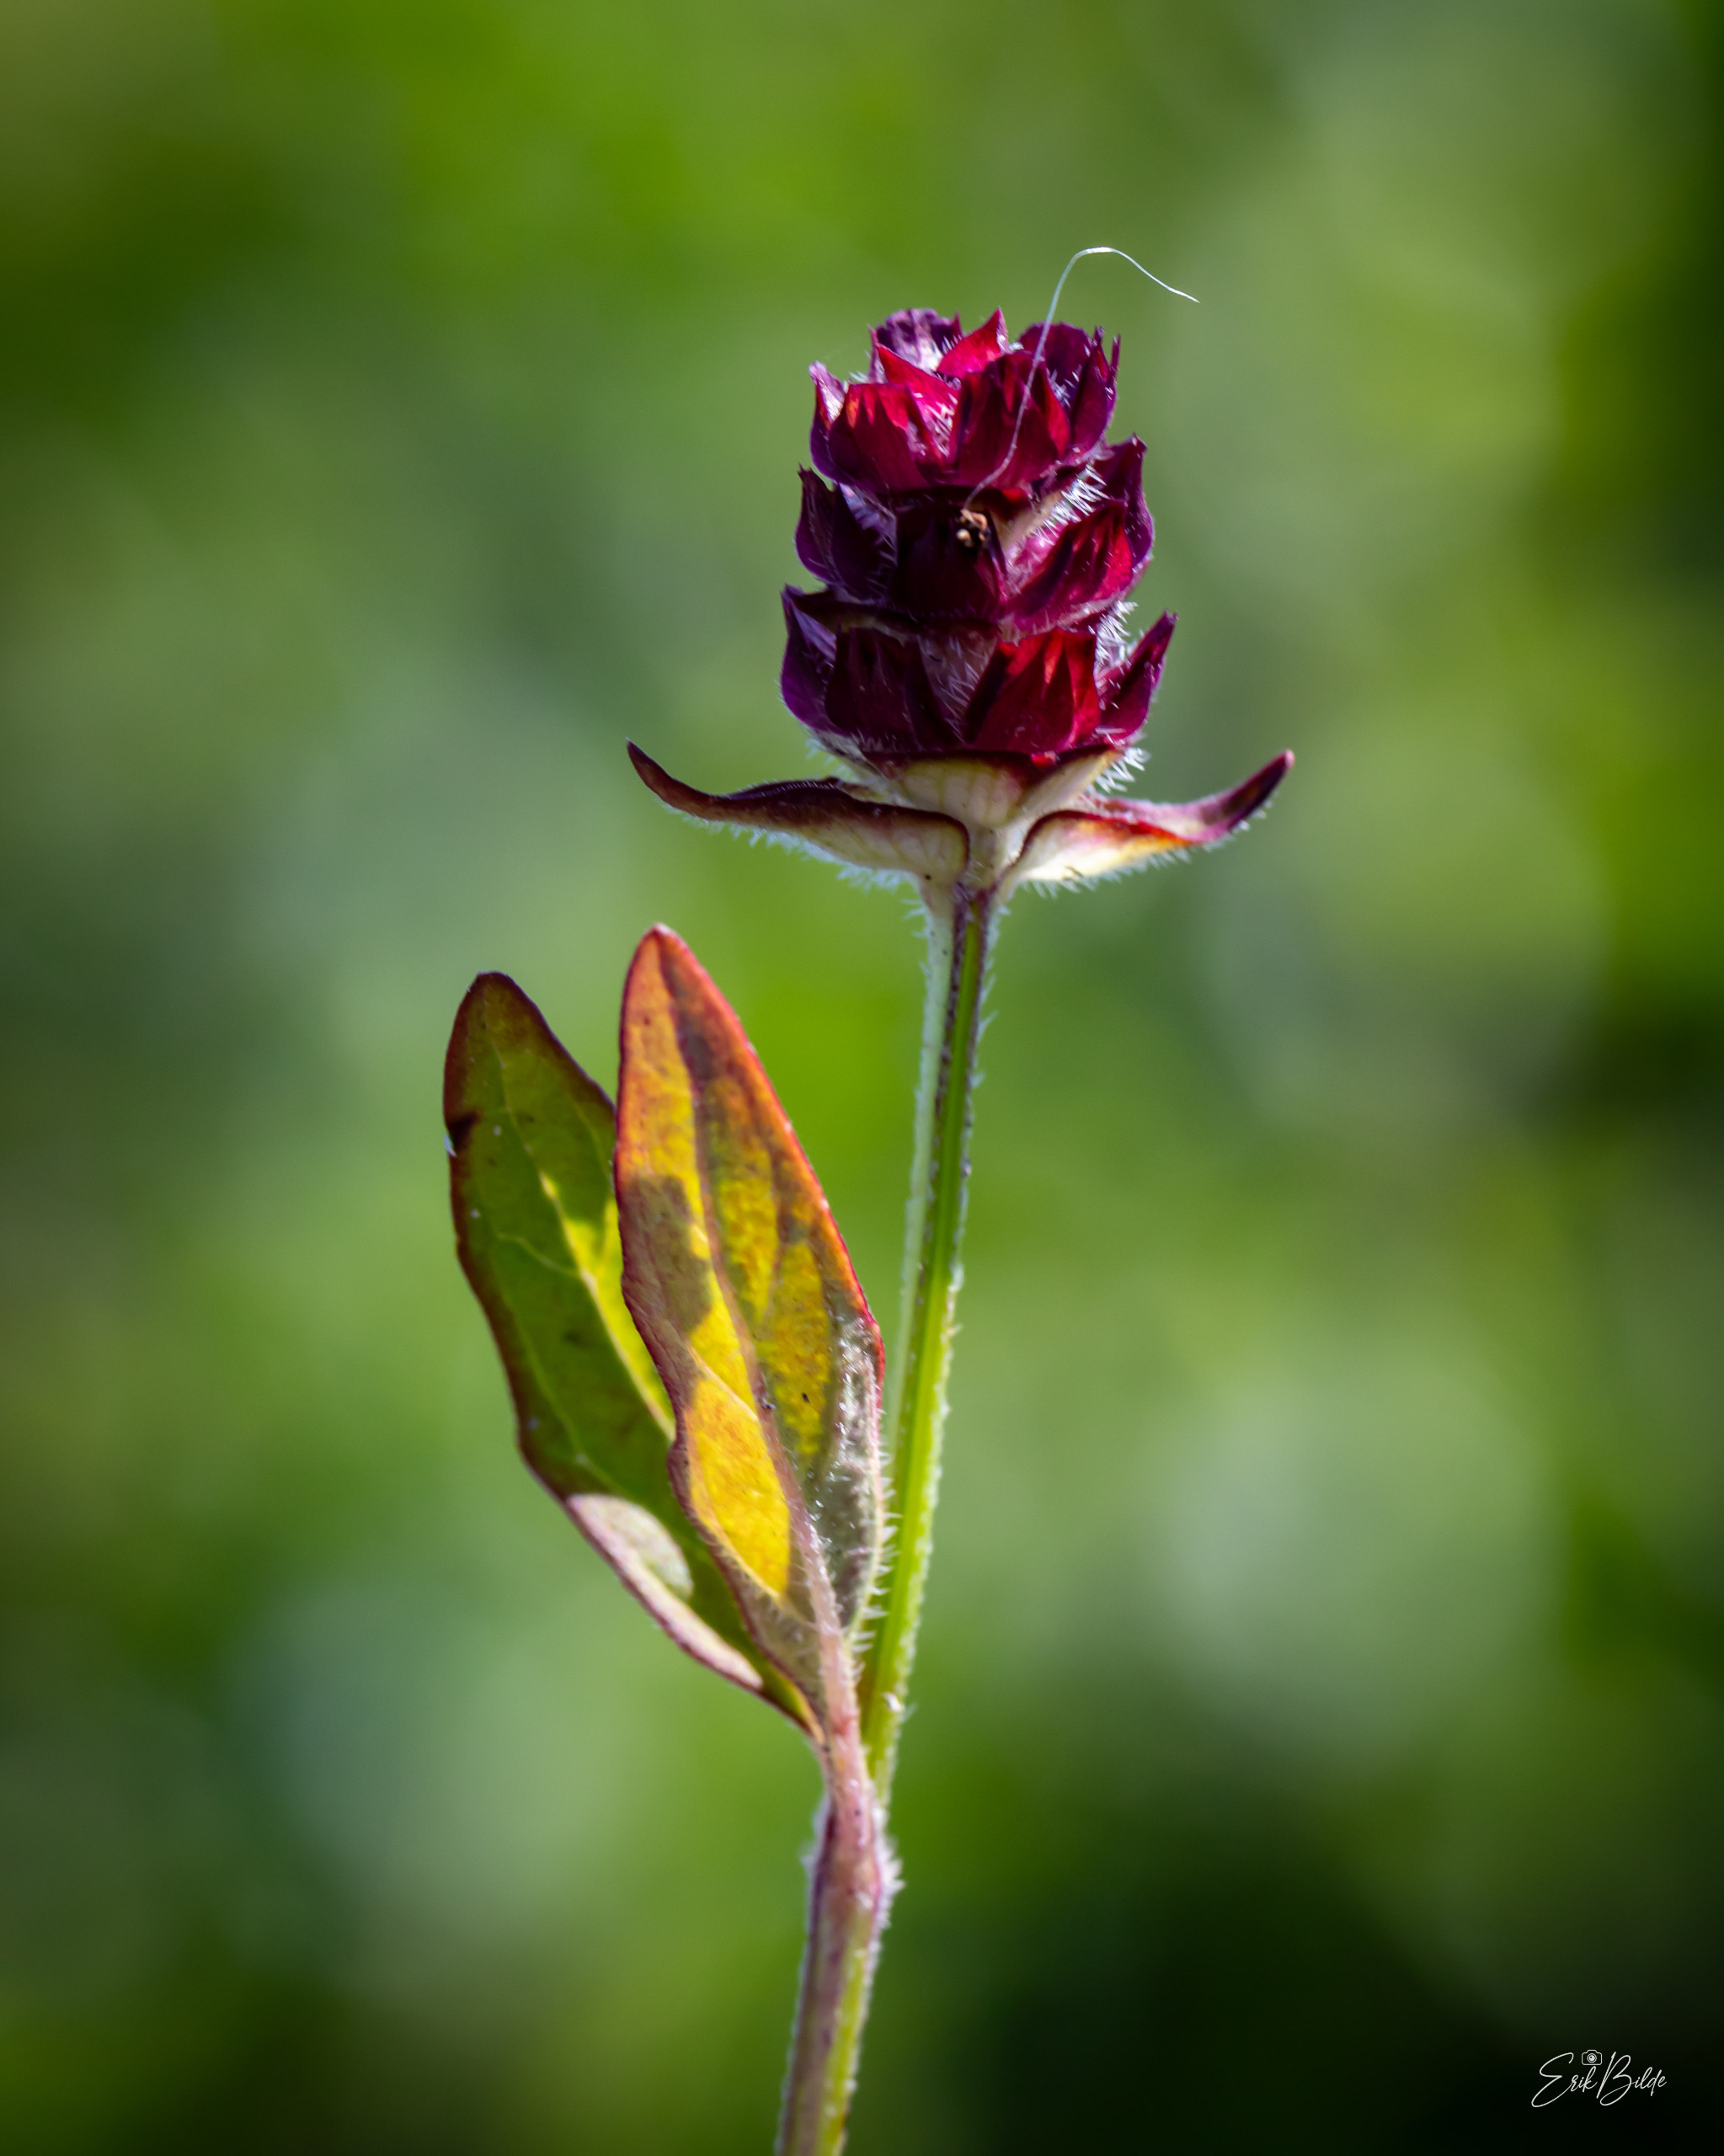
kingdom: Plantae
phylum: Tracheophyta
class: Magnoliopsida
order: Lamiales
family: Lamiaceae
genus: Prunella
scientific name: Prunella vulgaris
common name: Almindelig brunelle
